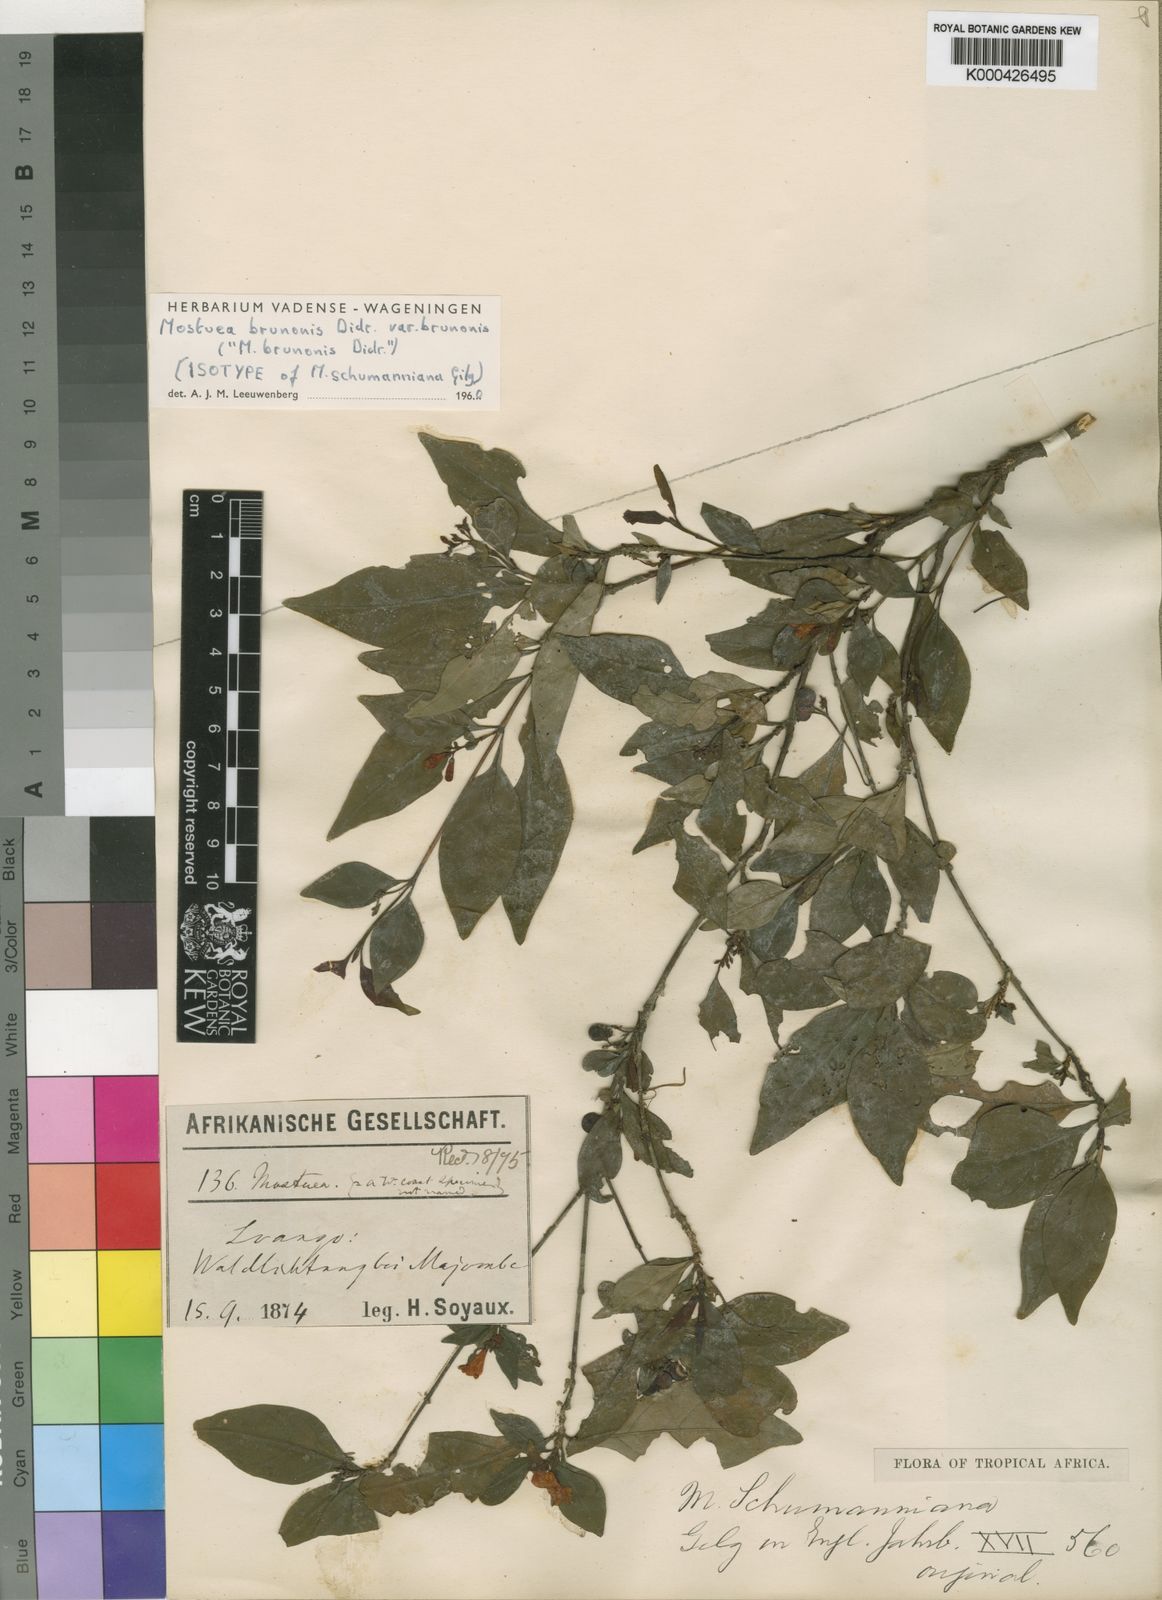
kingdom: Plantae
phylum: Tracheophyta
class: Magnoliopsida
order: Gentianales
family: Gelsemiaceae
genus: Mostuea
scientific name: Mostuea brunonis
